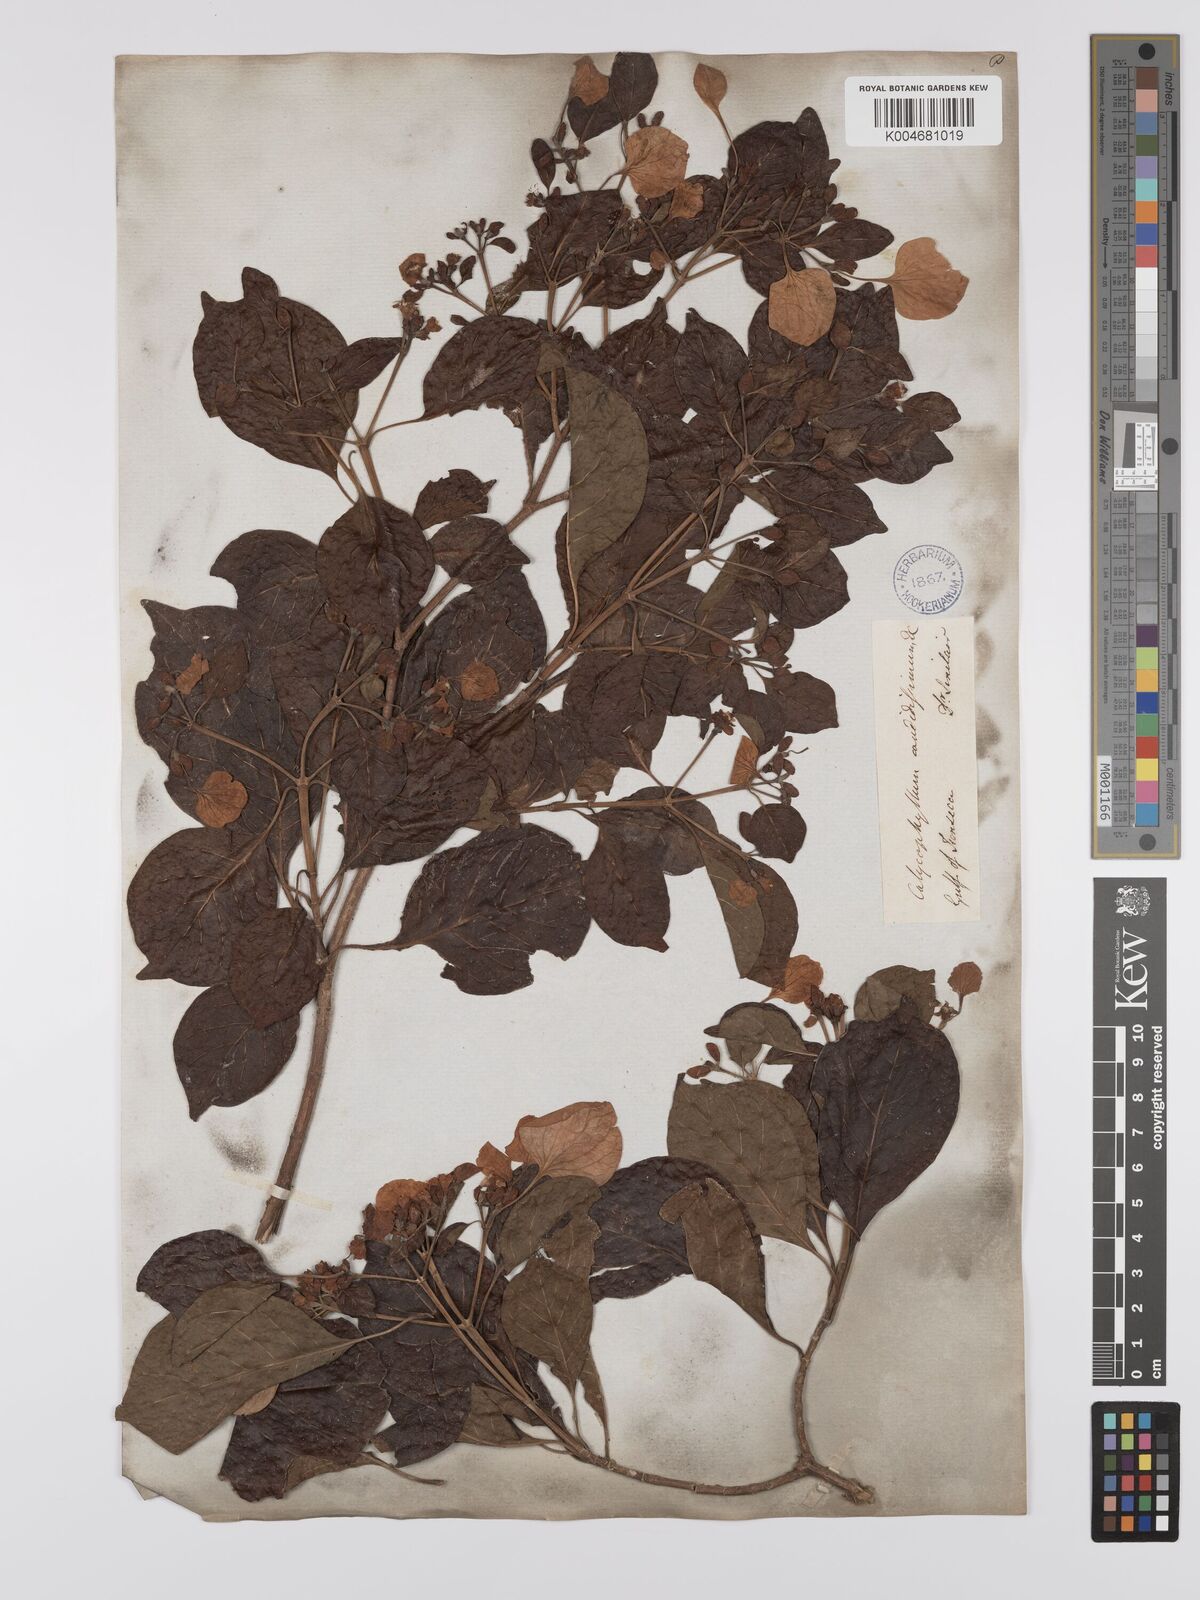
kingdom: Plantae
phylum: Tracheophyta
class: Magnoliopsida
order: Gentianales
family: Rubiaceae
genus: Calycophyllum
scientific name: Calycophyllum candidissimum
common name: Dagame
